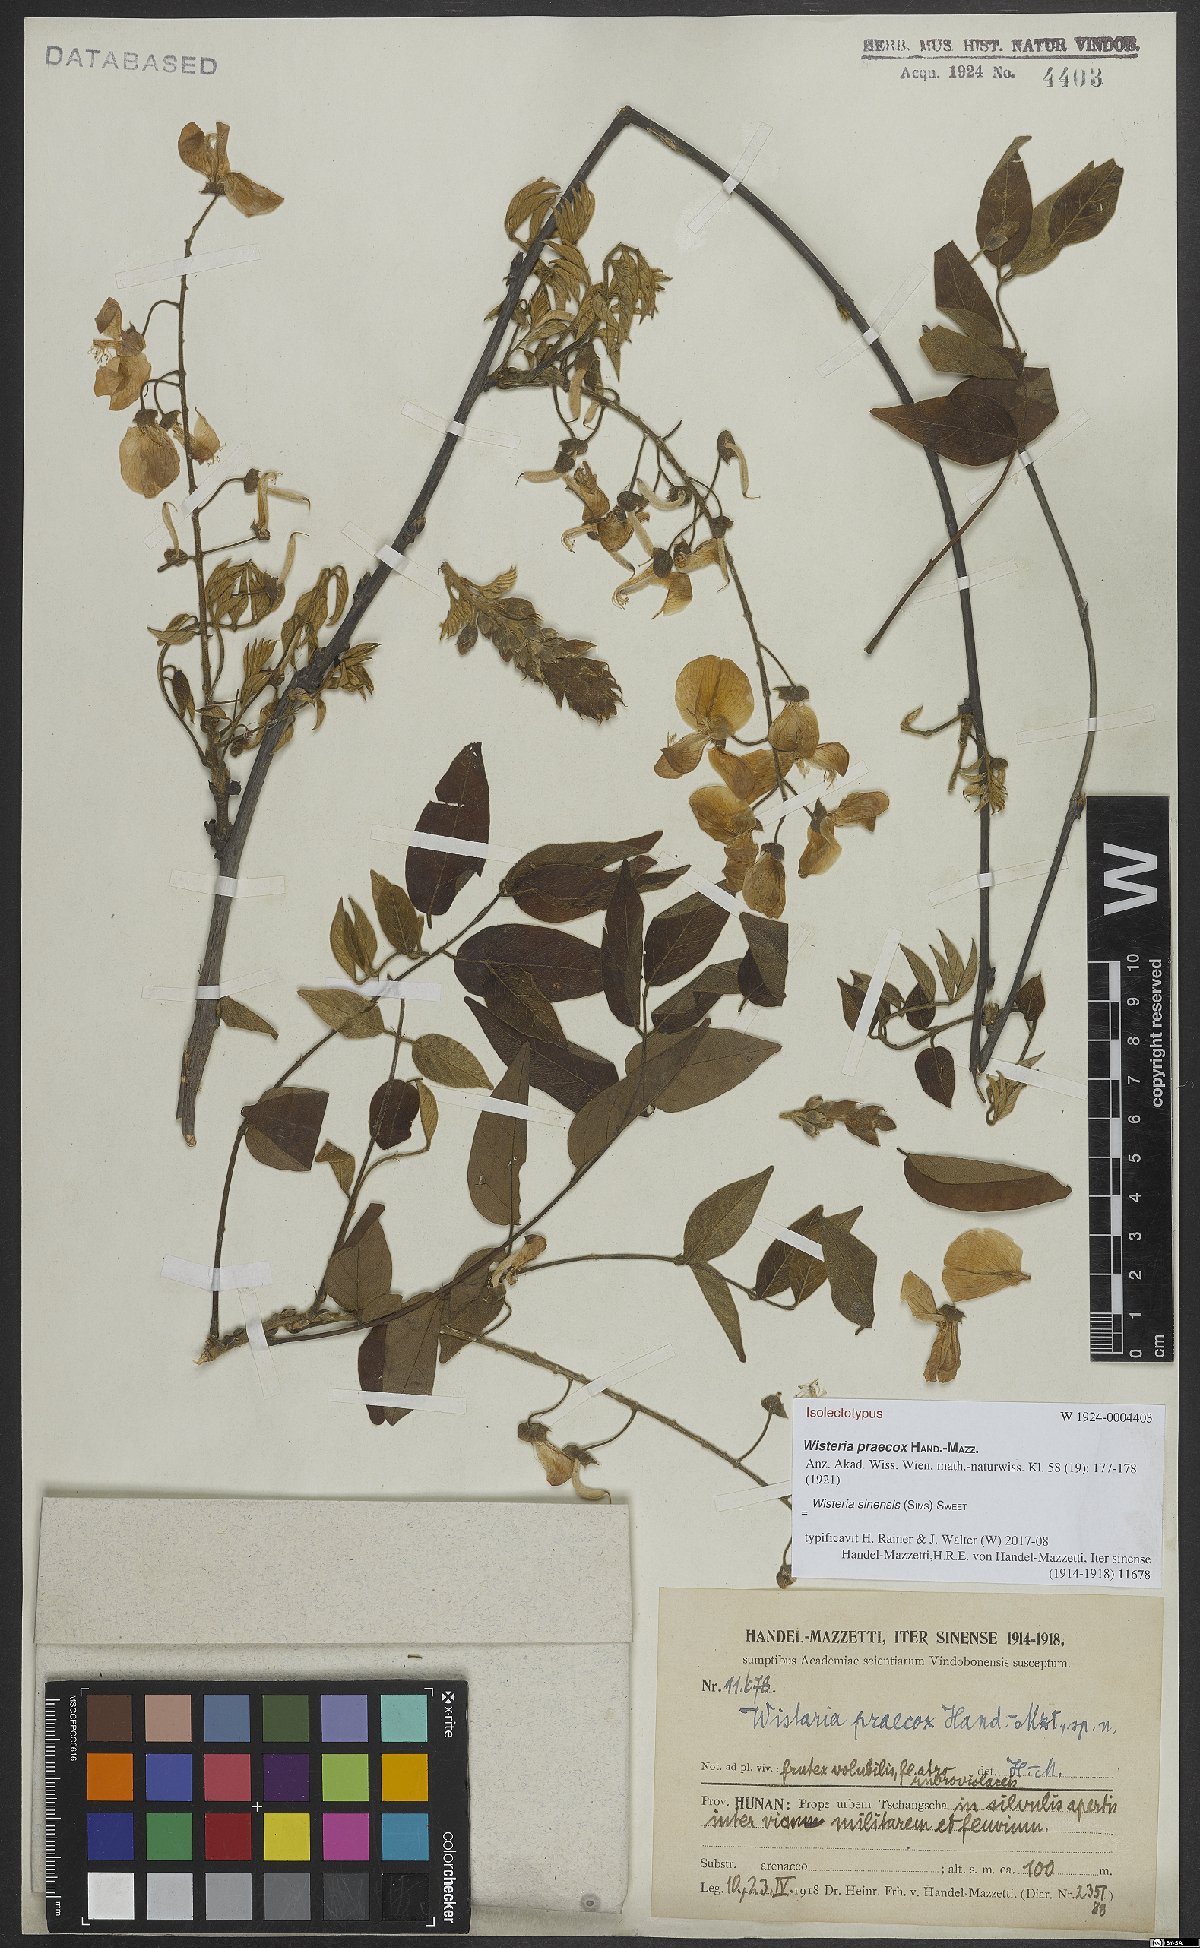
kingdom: Plantae
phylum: Tracheophyta
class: Magnoliopsida
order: Fabales
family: Fabaceae
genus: Wisteria
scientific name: Wisteria sinensis
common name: Chinese wisteria
